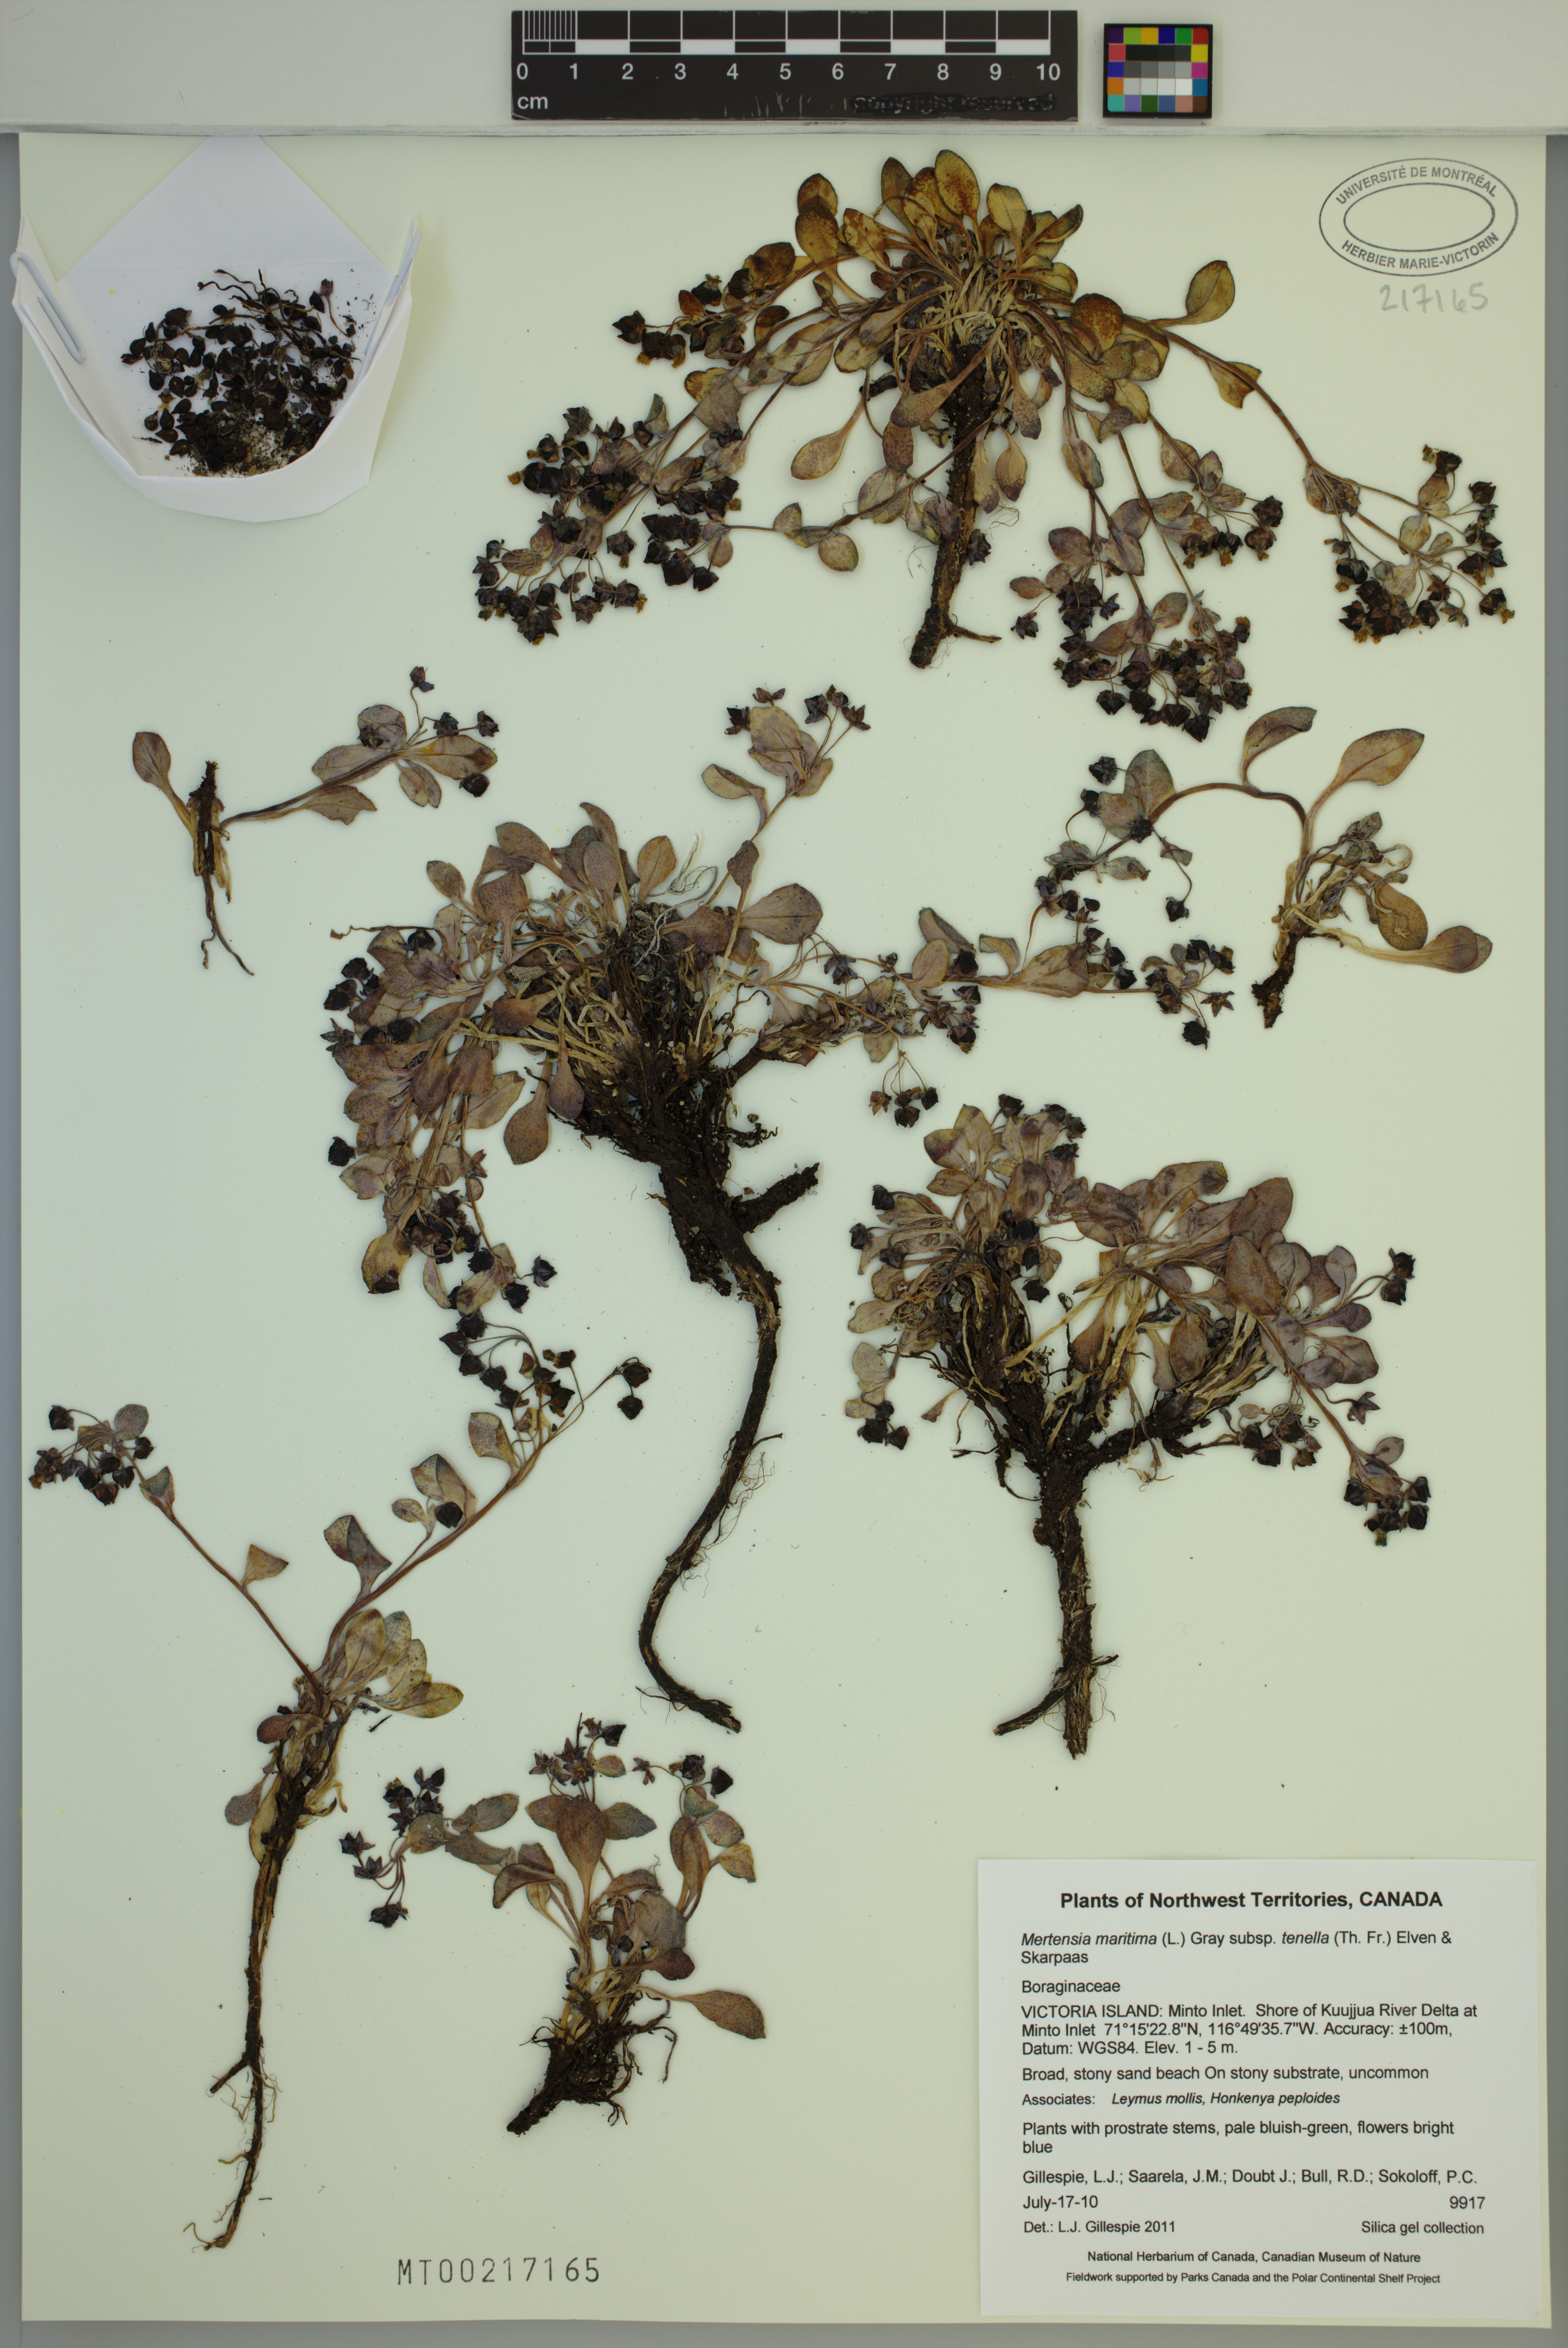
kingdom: Plantae
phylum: Tracheophyta
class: Magnoliopsida
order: Boraginales
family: Boraginaceae
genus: Mertensia
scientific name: Mertensia maritima
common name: Oysterplant
